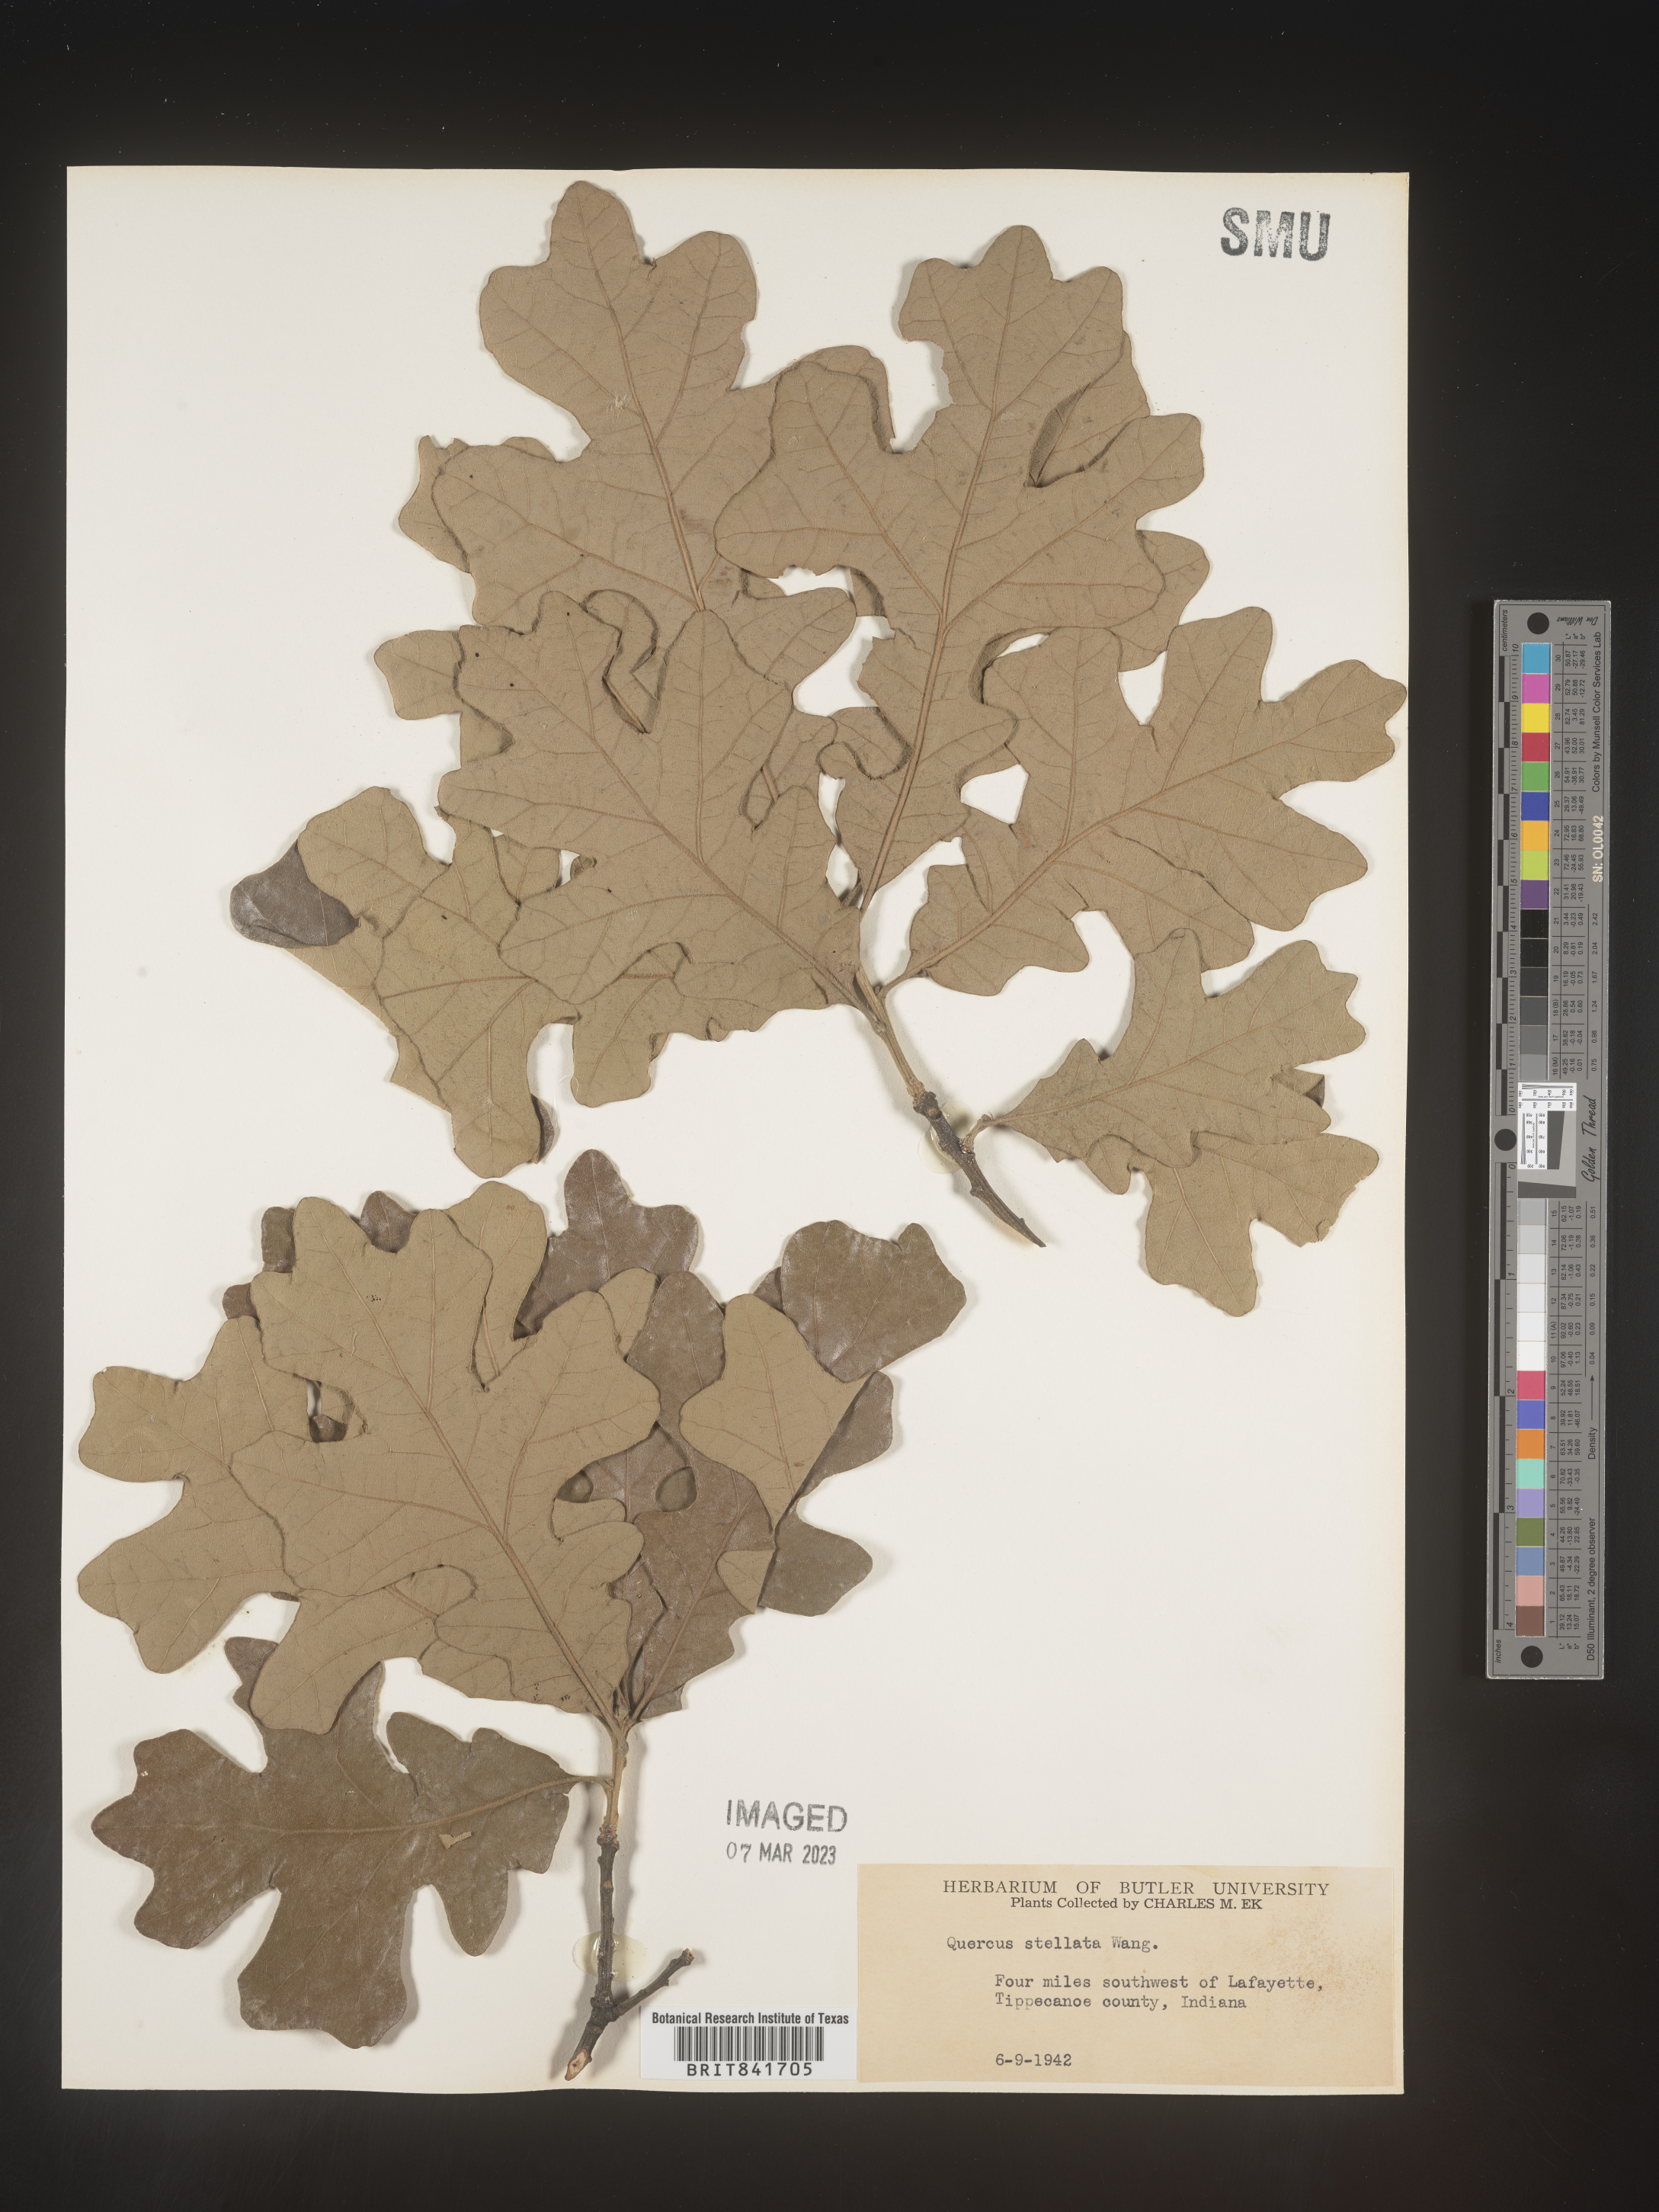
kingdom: Plantae
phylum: Tracheophyta
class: Magnoliopsida
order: Fagales
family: Fagaceae
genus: Quercus
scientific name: Quercus stellata
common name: Post oak
